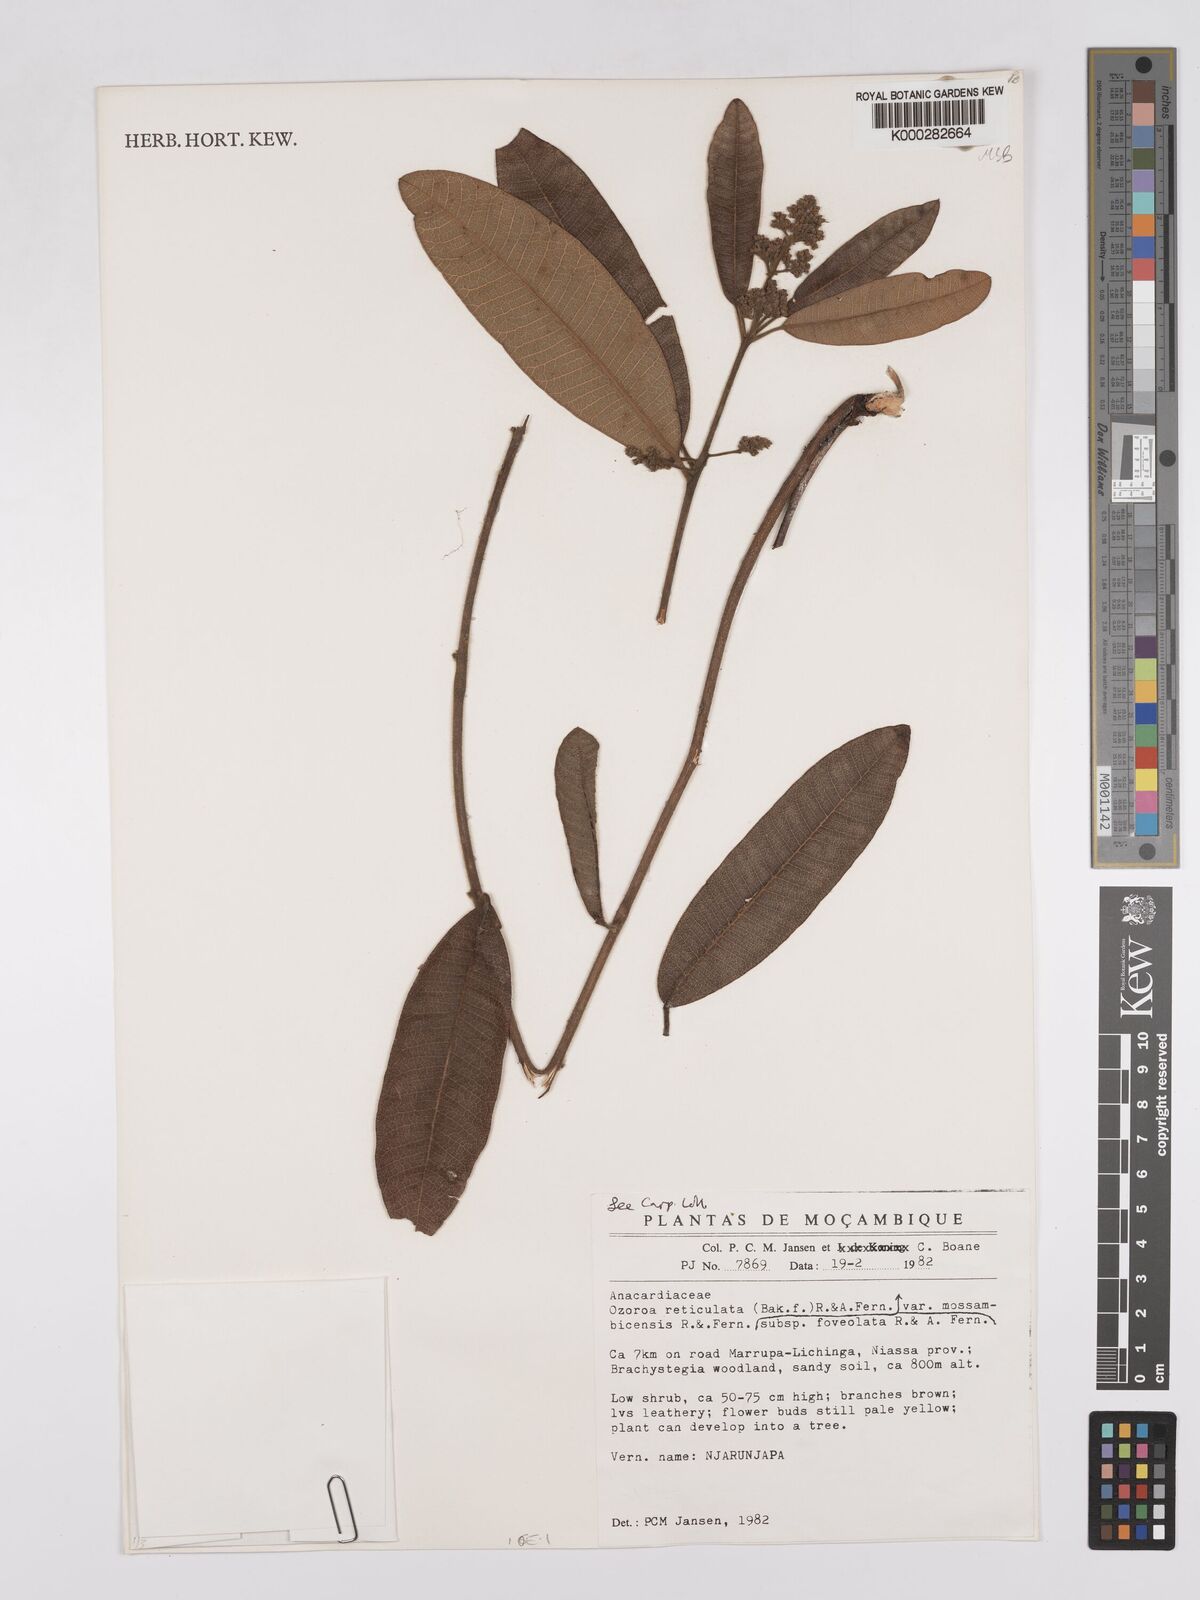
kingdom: Plantae
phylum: Tracheophyta
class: Magnoliopsida
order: Sapindales
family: Anacardiaceae
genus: Ozoroa
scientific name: Ozoroa insignis
